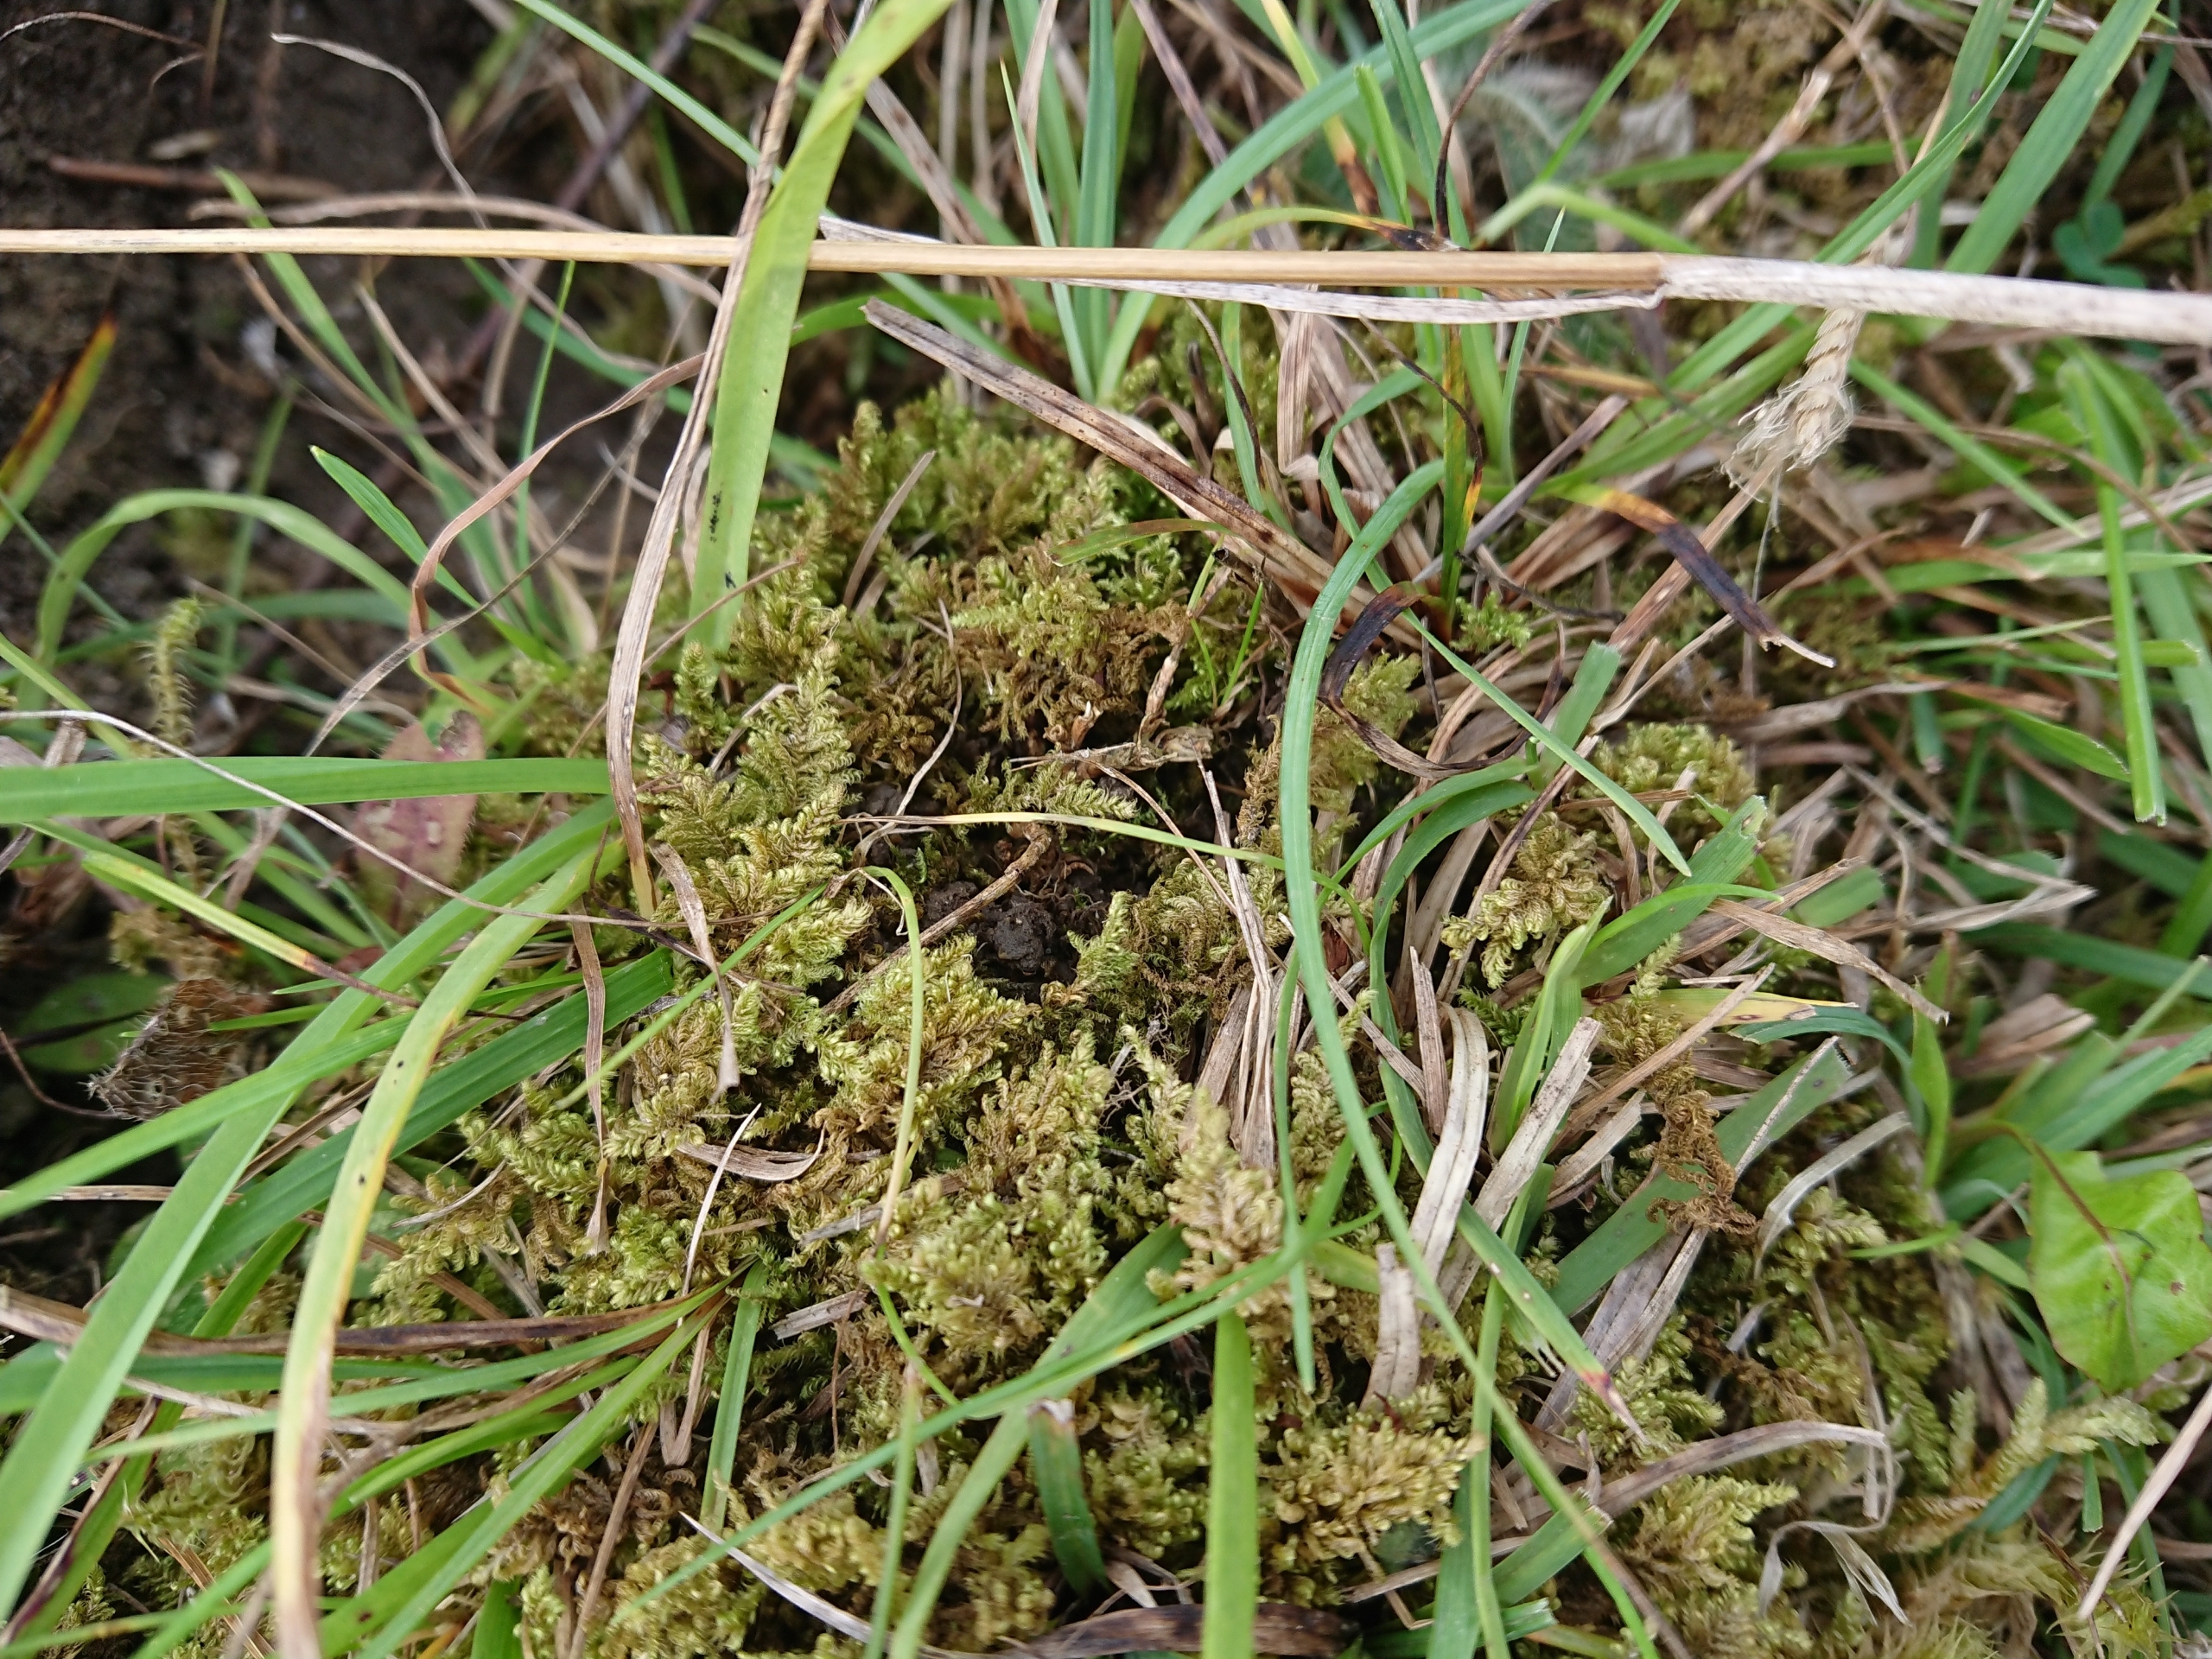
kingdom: Plantae
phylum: Bryophyta
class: Bryopsida
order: Hypnales
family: Myuriaceae
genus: Ctenidium
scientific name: Ctenidium molluscum
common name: Kalk-blødmos
